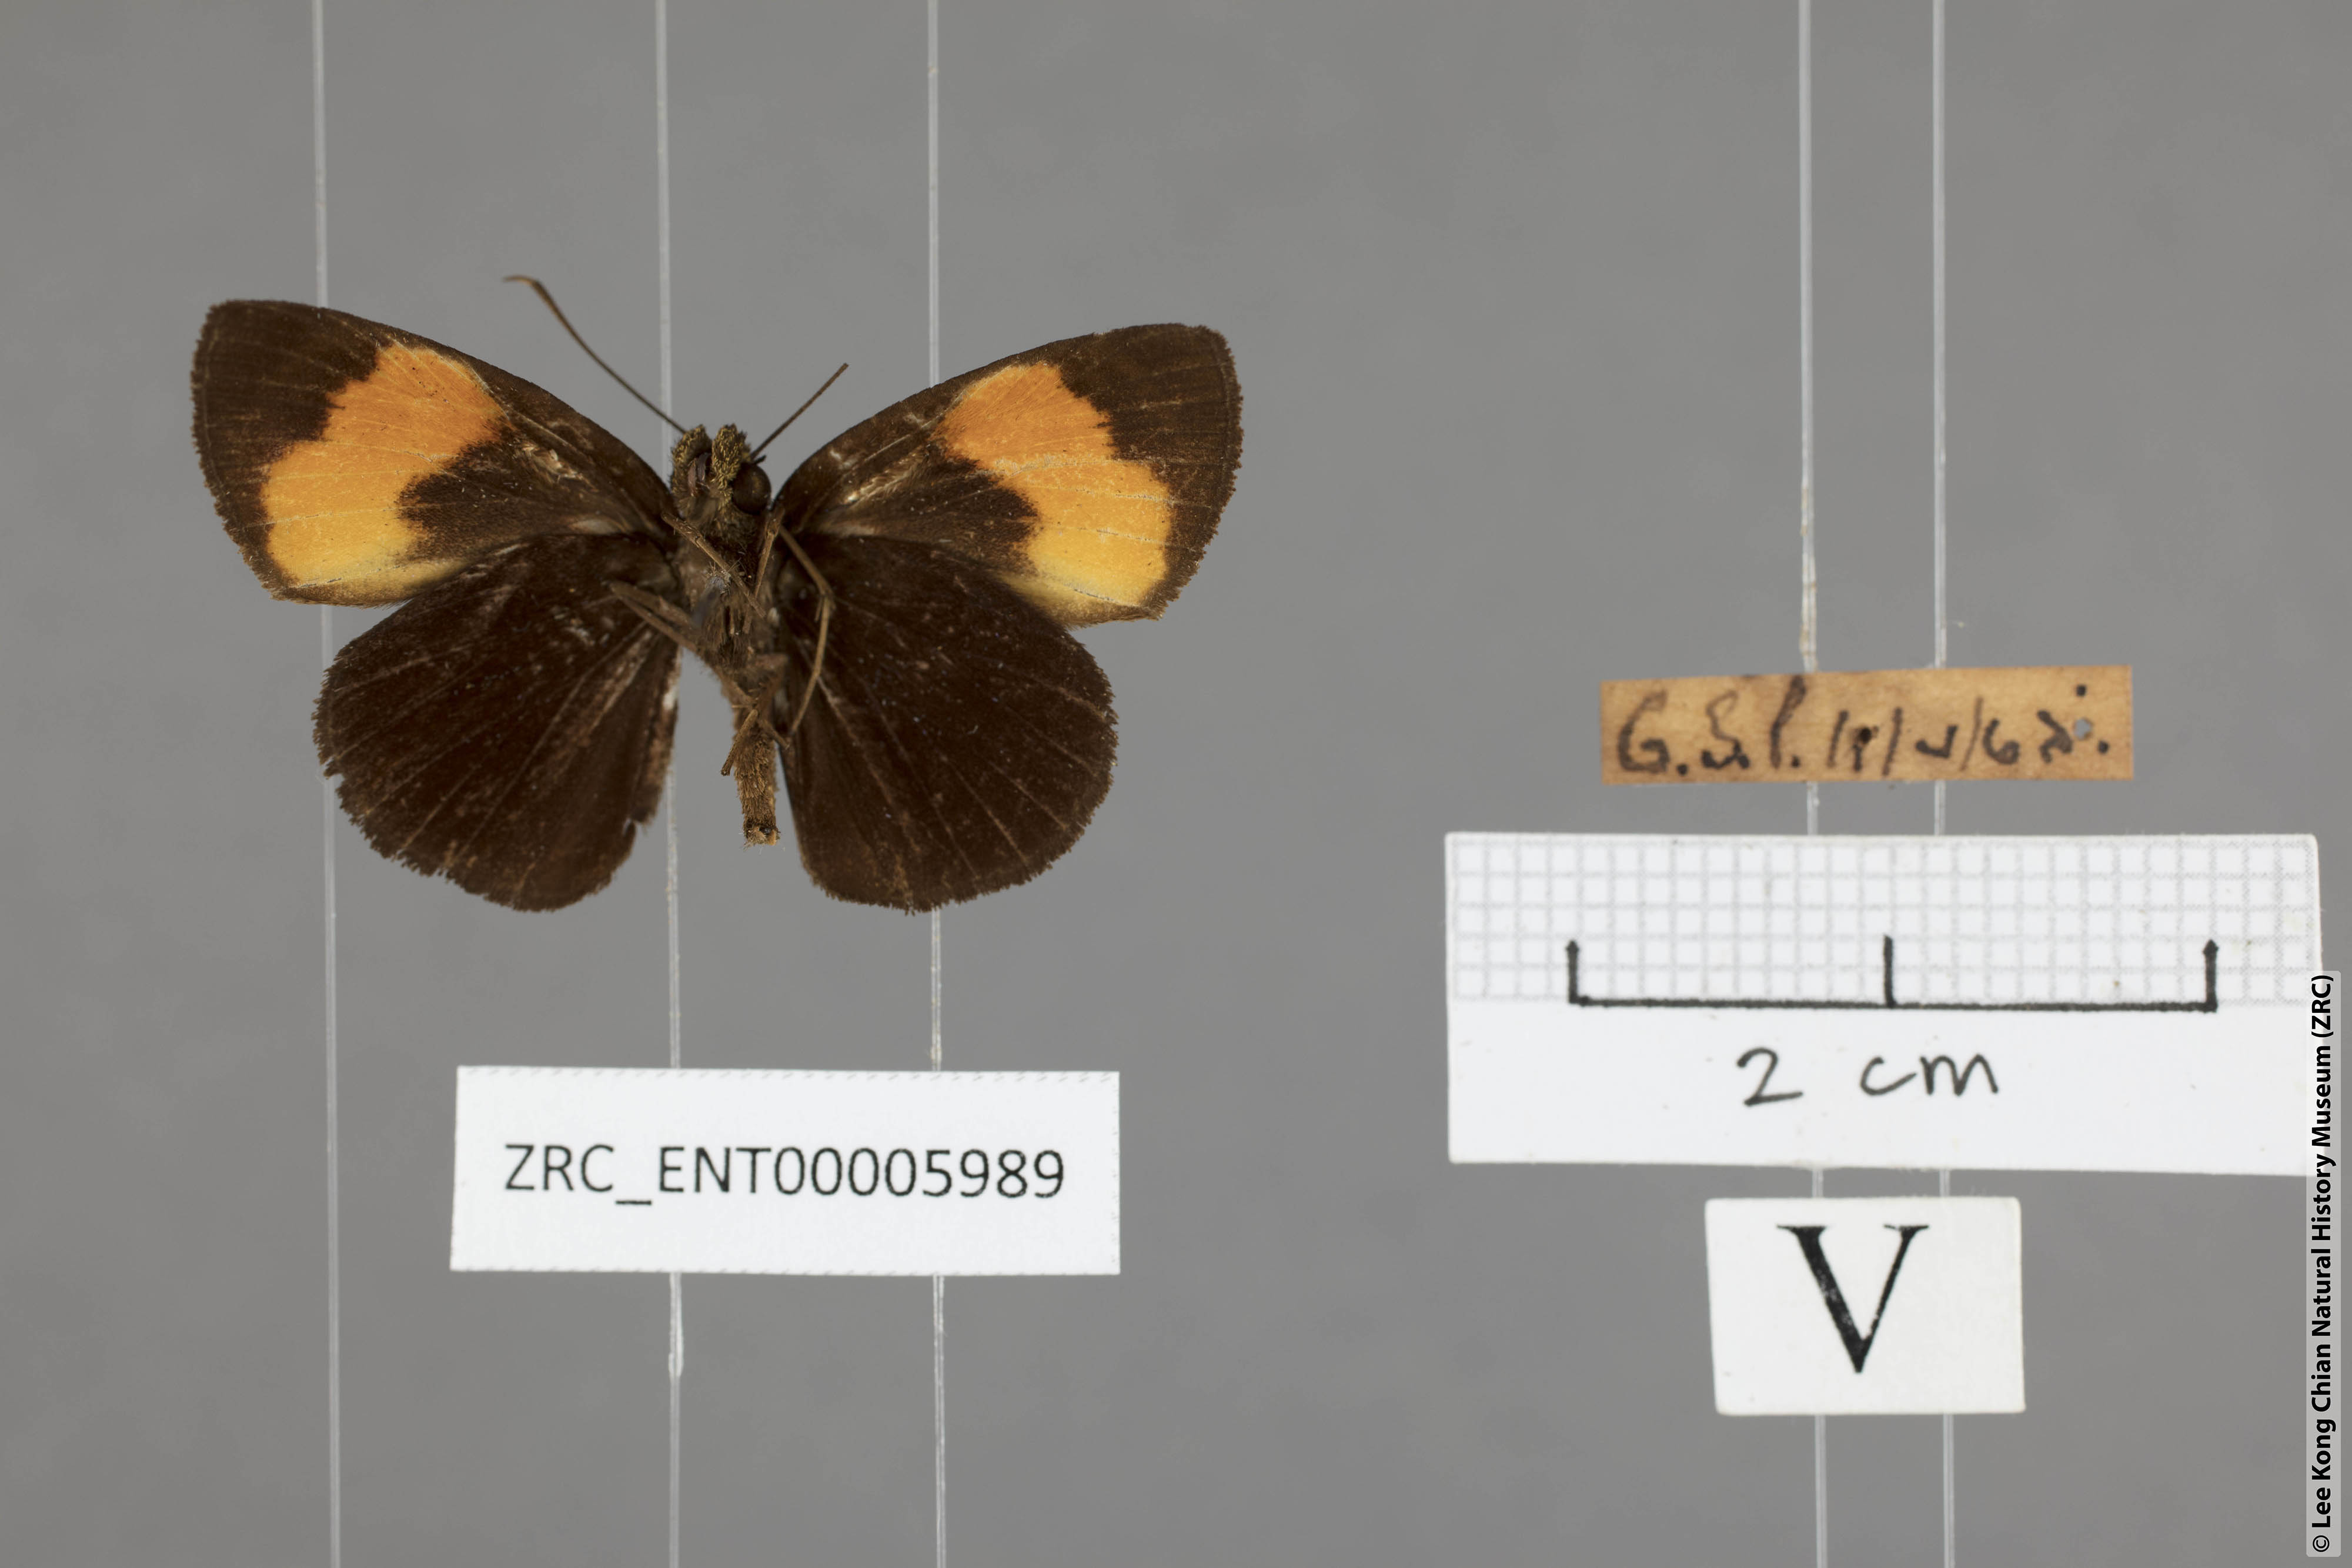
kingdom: Animalia
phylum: Arthropoda
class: Insecta
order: Lepidoptera
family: Hesperiidae
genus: Ancistroides
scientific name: Ancistroides gemmifer
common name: Gem demon
